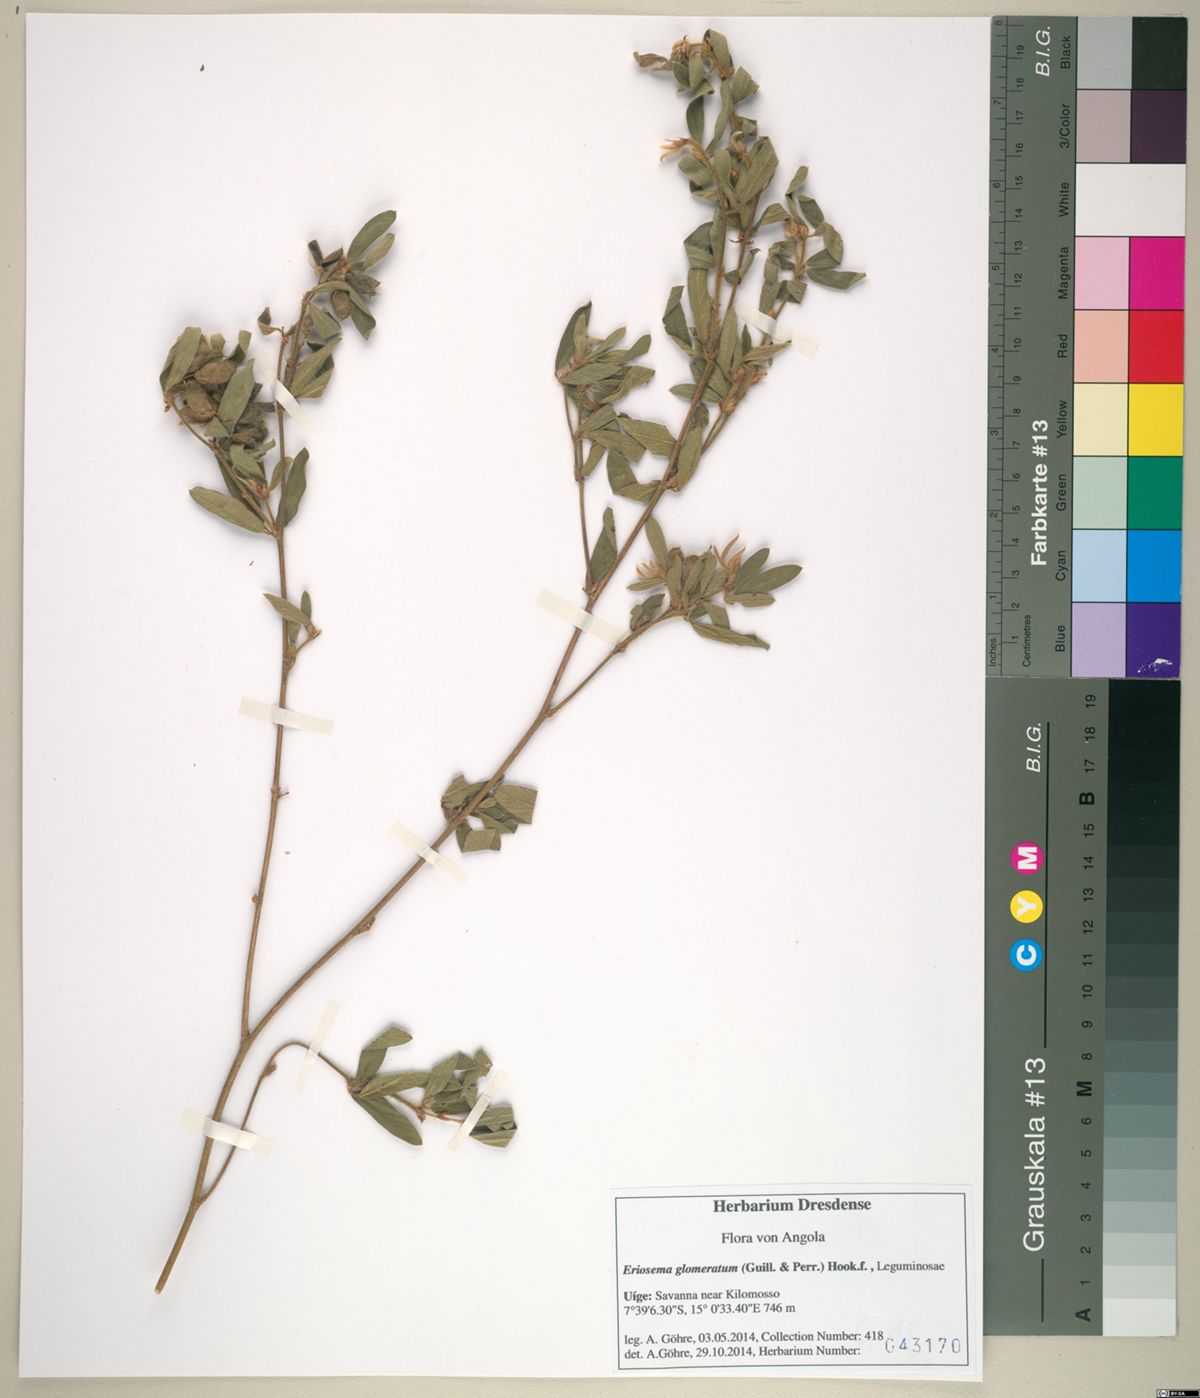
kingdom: Plantae
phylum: Tracheophyta
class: Magnoliopsida
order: Fabales
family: Fabaceae
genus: Eriosema
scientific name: Eriosema glomeratum
